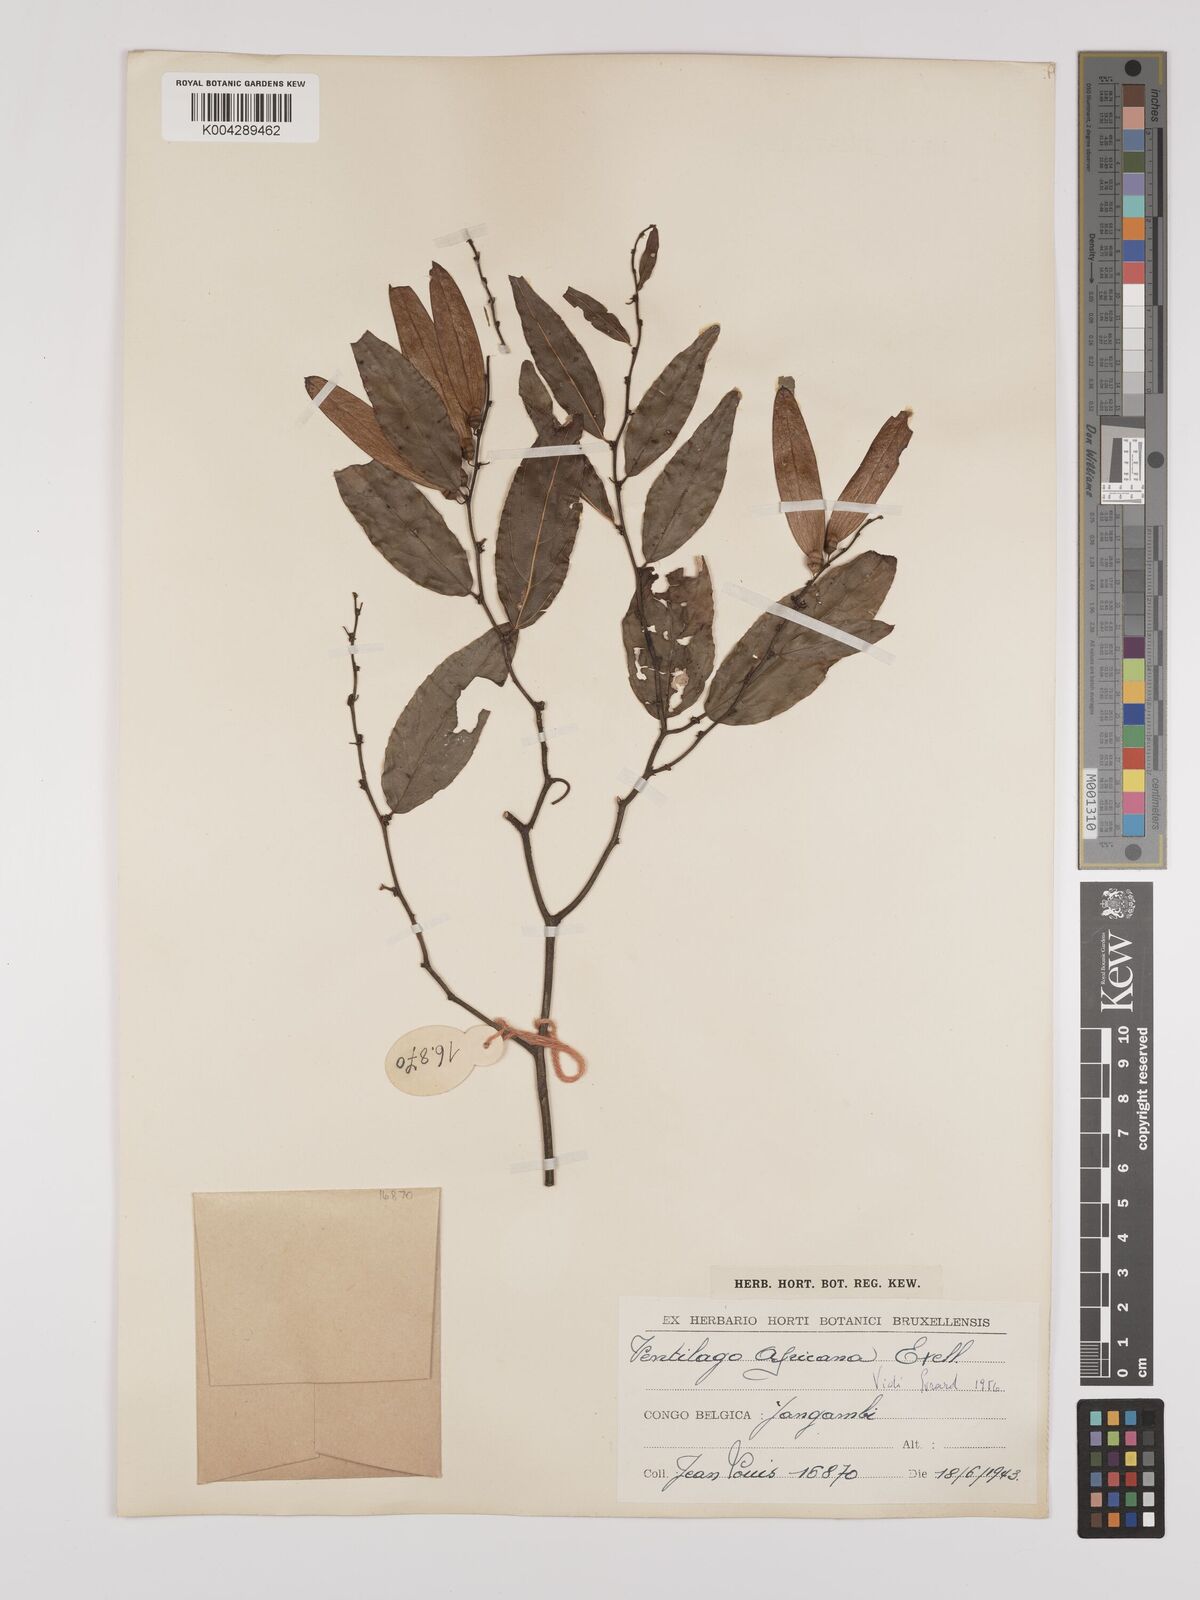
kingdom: Plantae
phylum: Tracheophyta
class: Magnoliopsida
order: Rosales
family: Rhamnaceae
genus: Ventilago
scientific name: Ventilago africana
